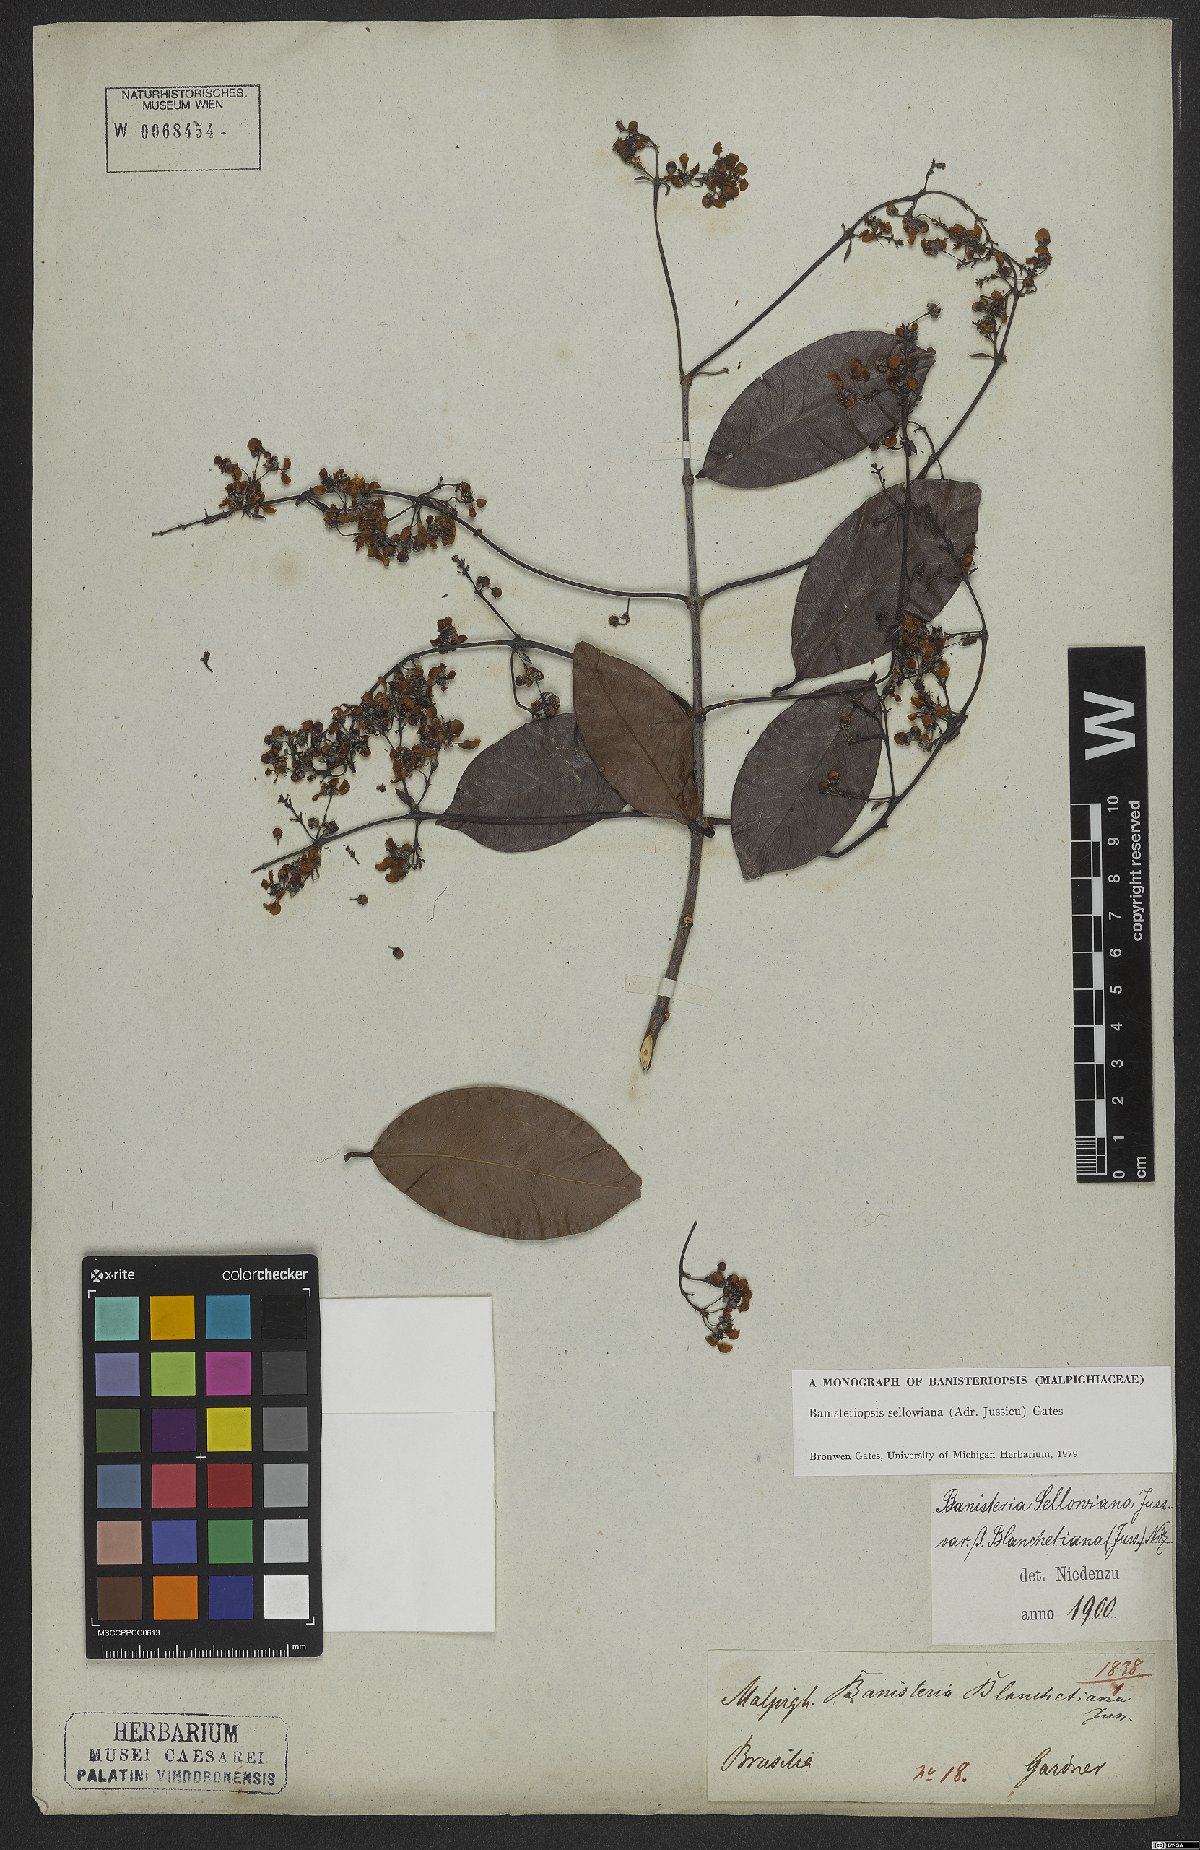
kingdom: Plantae
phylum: Tracheophyta
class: Magnoliopsida
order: Malpighiales
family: Malpighiaceae
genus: Banisteriopsis
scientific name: Banisteriopsis sellowiana
